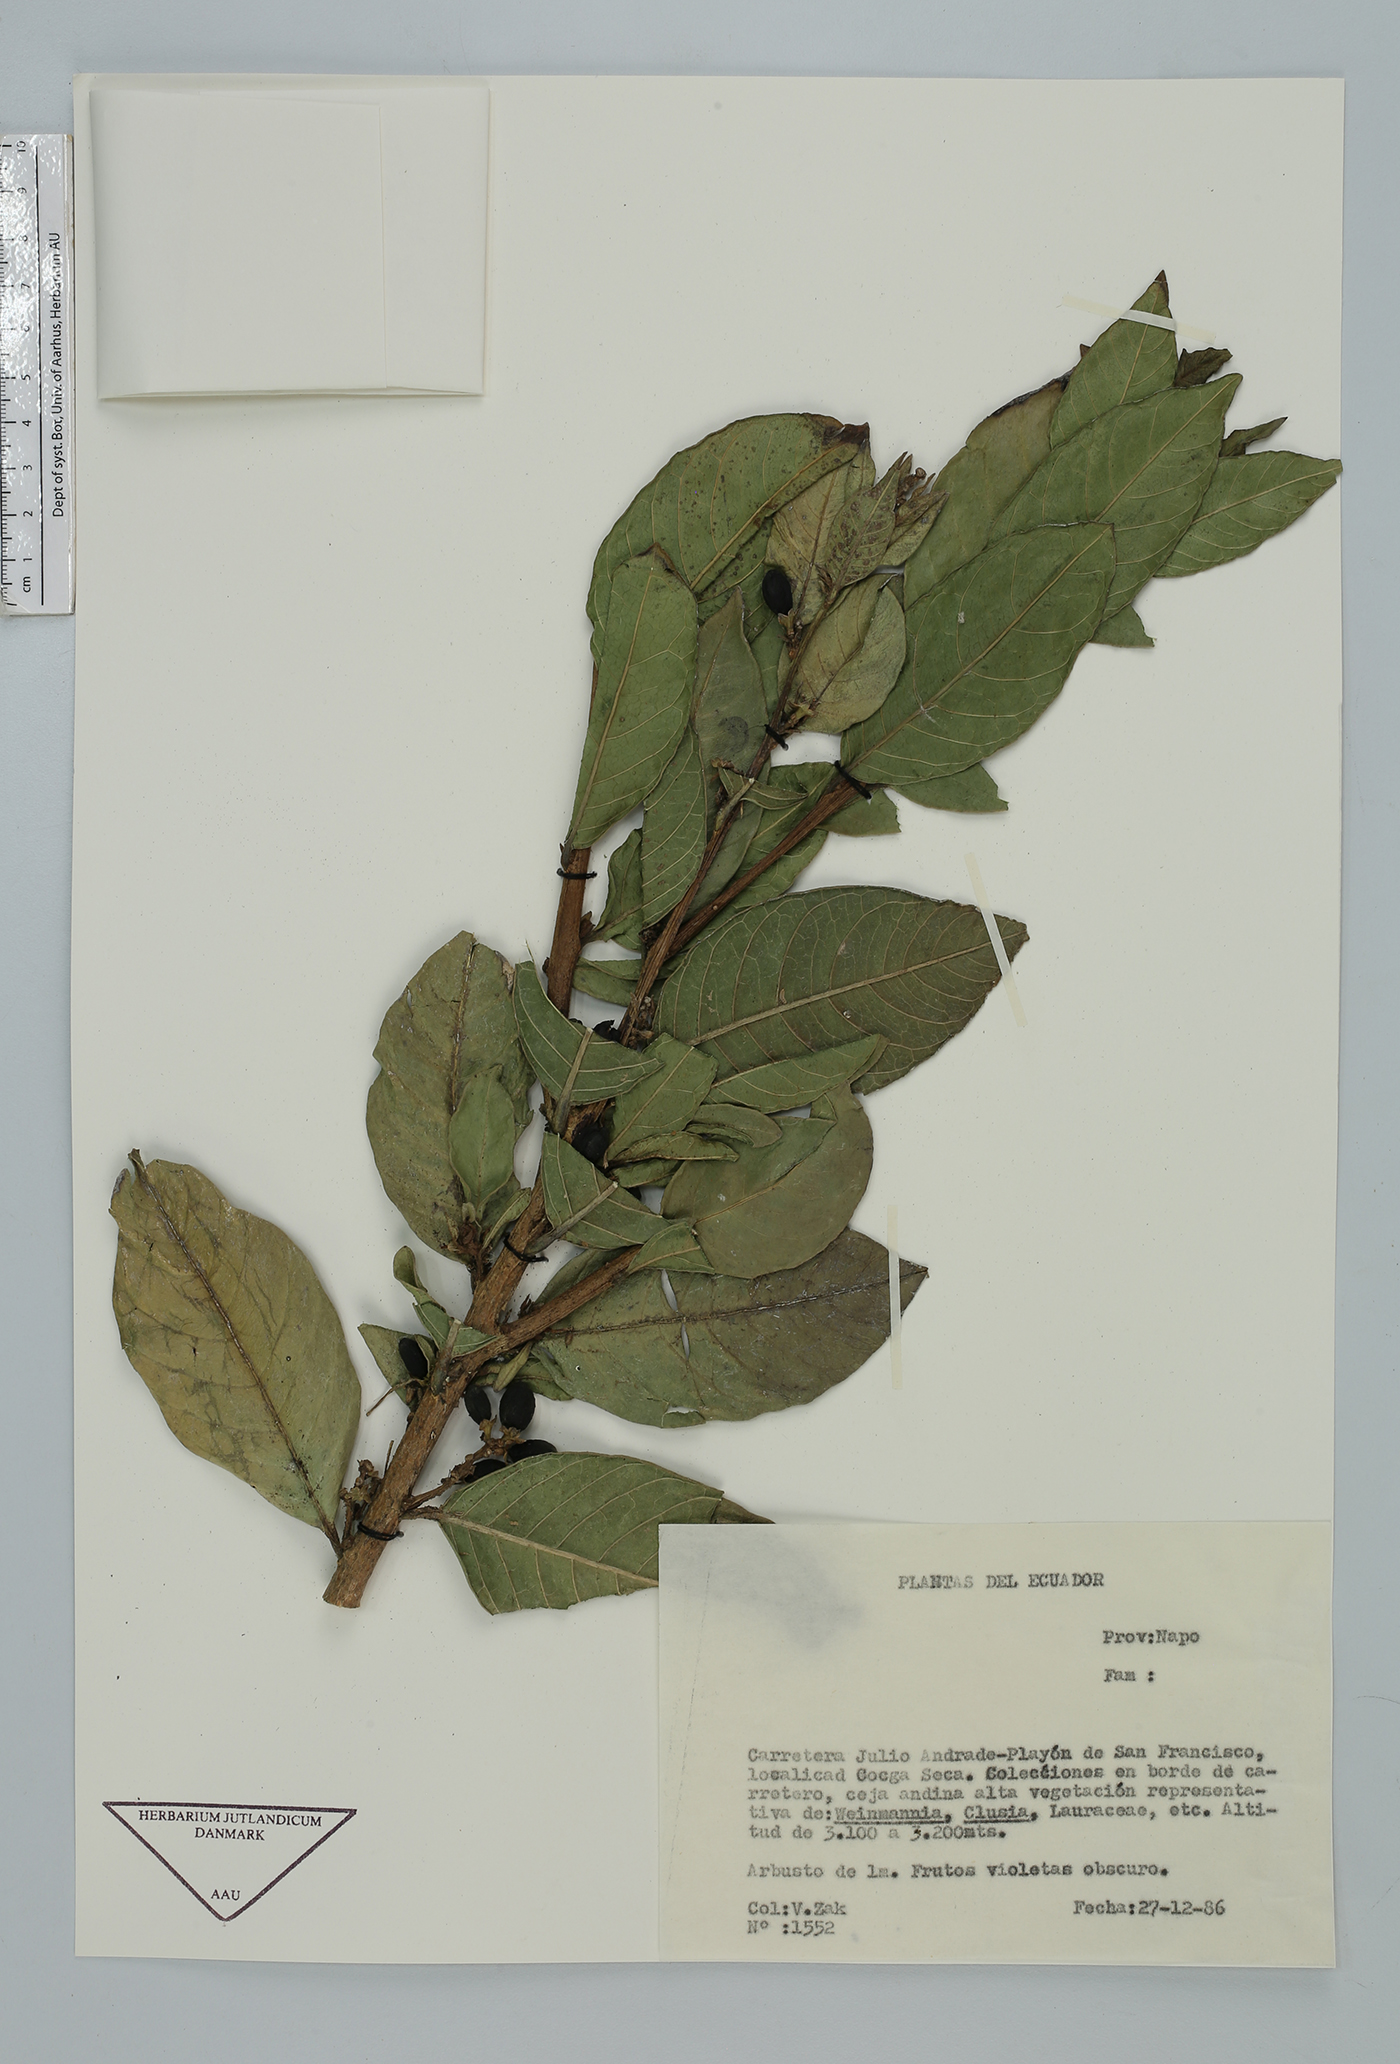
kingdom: Plantae
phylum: Tracheophyta
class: Magnoliopsida
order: Solanales
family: Solanaceae
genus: Cestrum
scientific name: Cestrum
